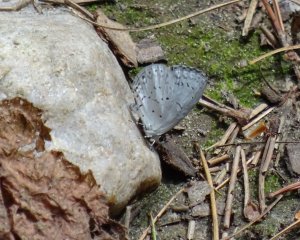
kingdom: Animalia
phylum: Arthropoda
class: Insecta
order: Lepidoptera
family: Lycaenidae
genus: Cyaniris
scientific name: Cyaniris neglecta
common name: Summer Azure
